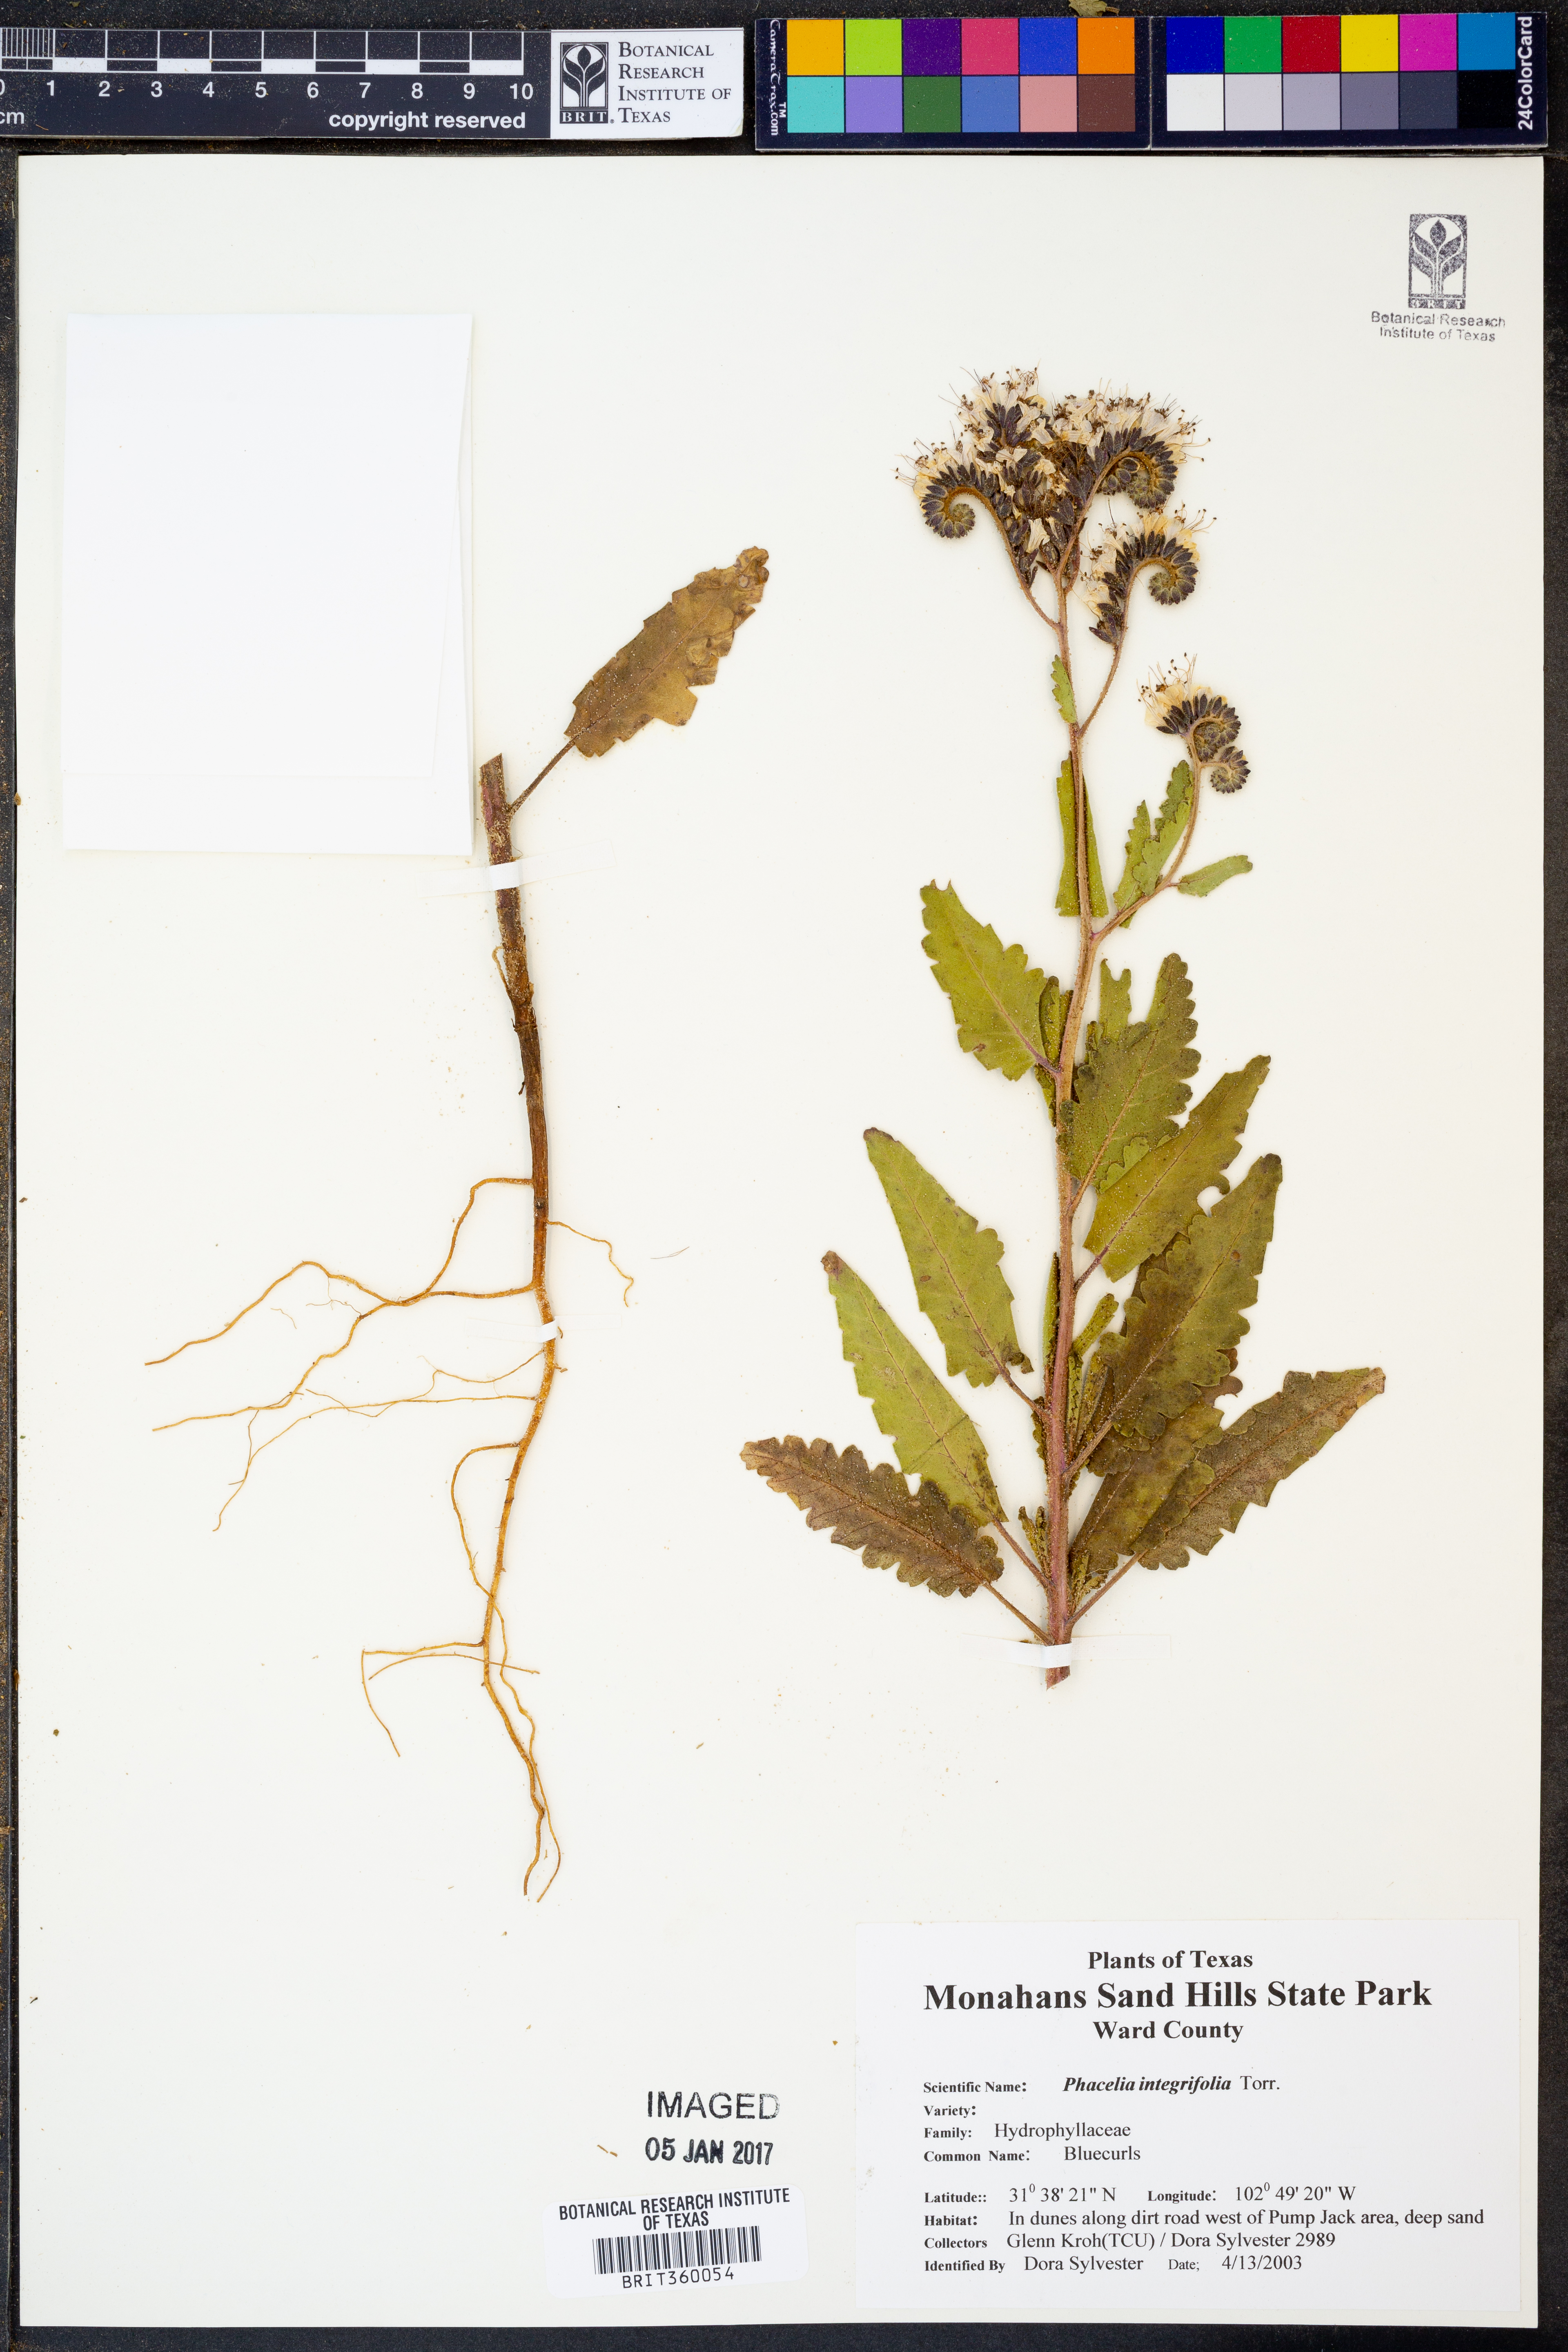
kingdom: Plantae
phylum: Tracheophyta
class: Magnoliopsida
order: Boraginales
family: Hydrophyllaceae
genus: Phacelia
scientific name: Phacelia integrifolia
